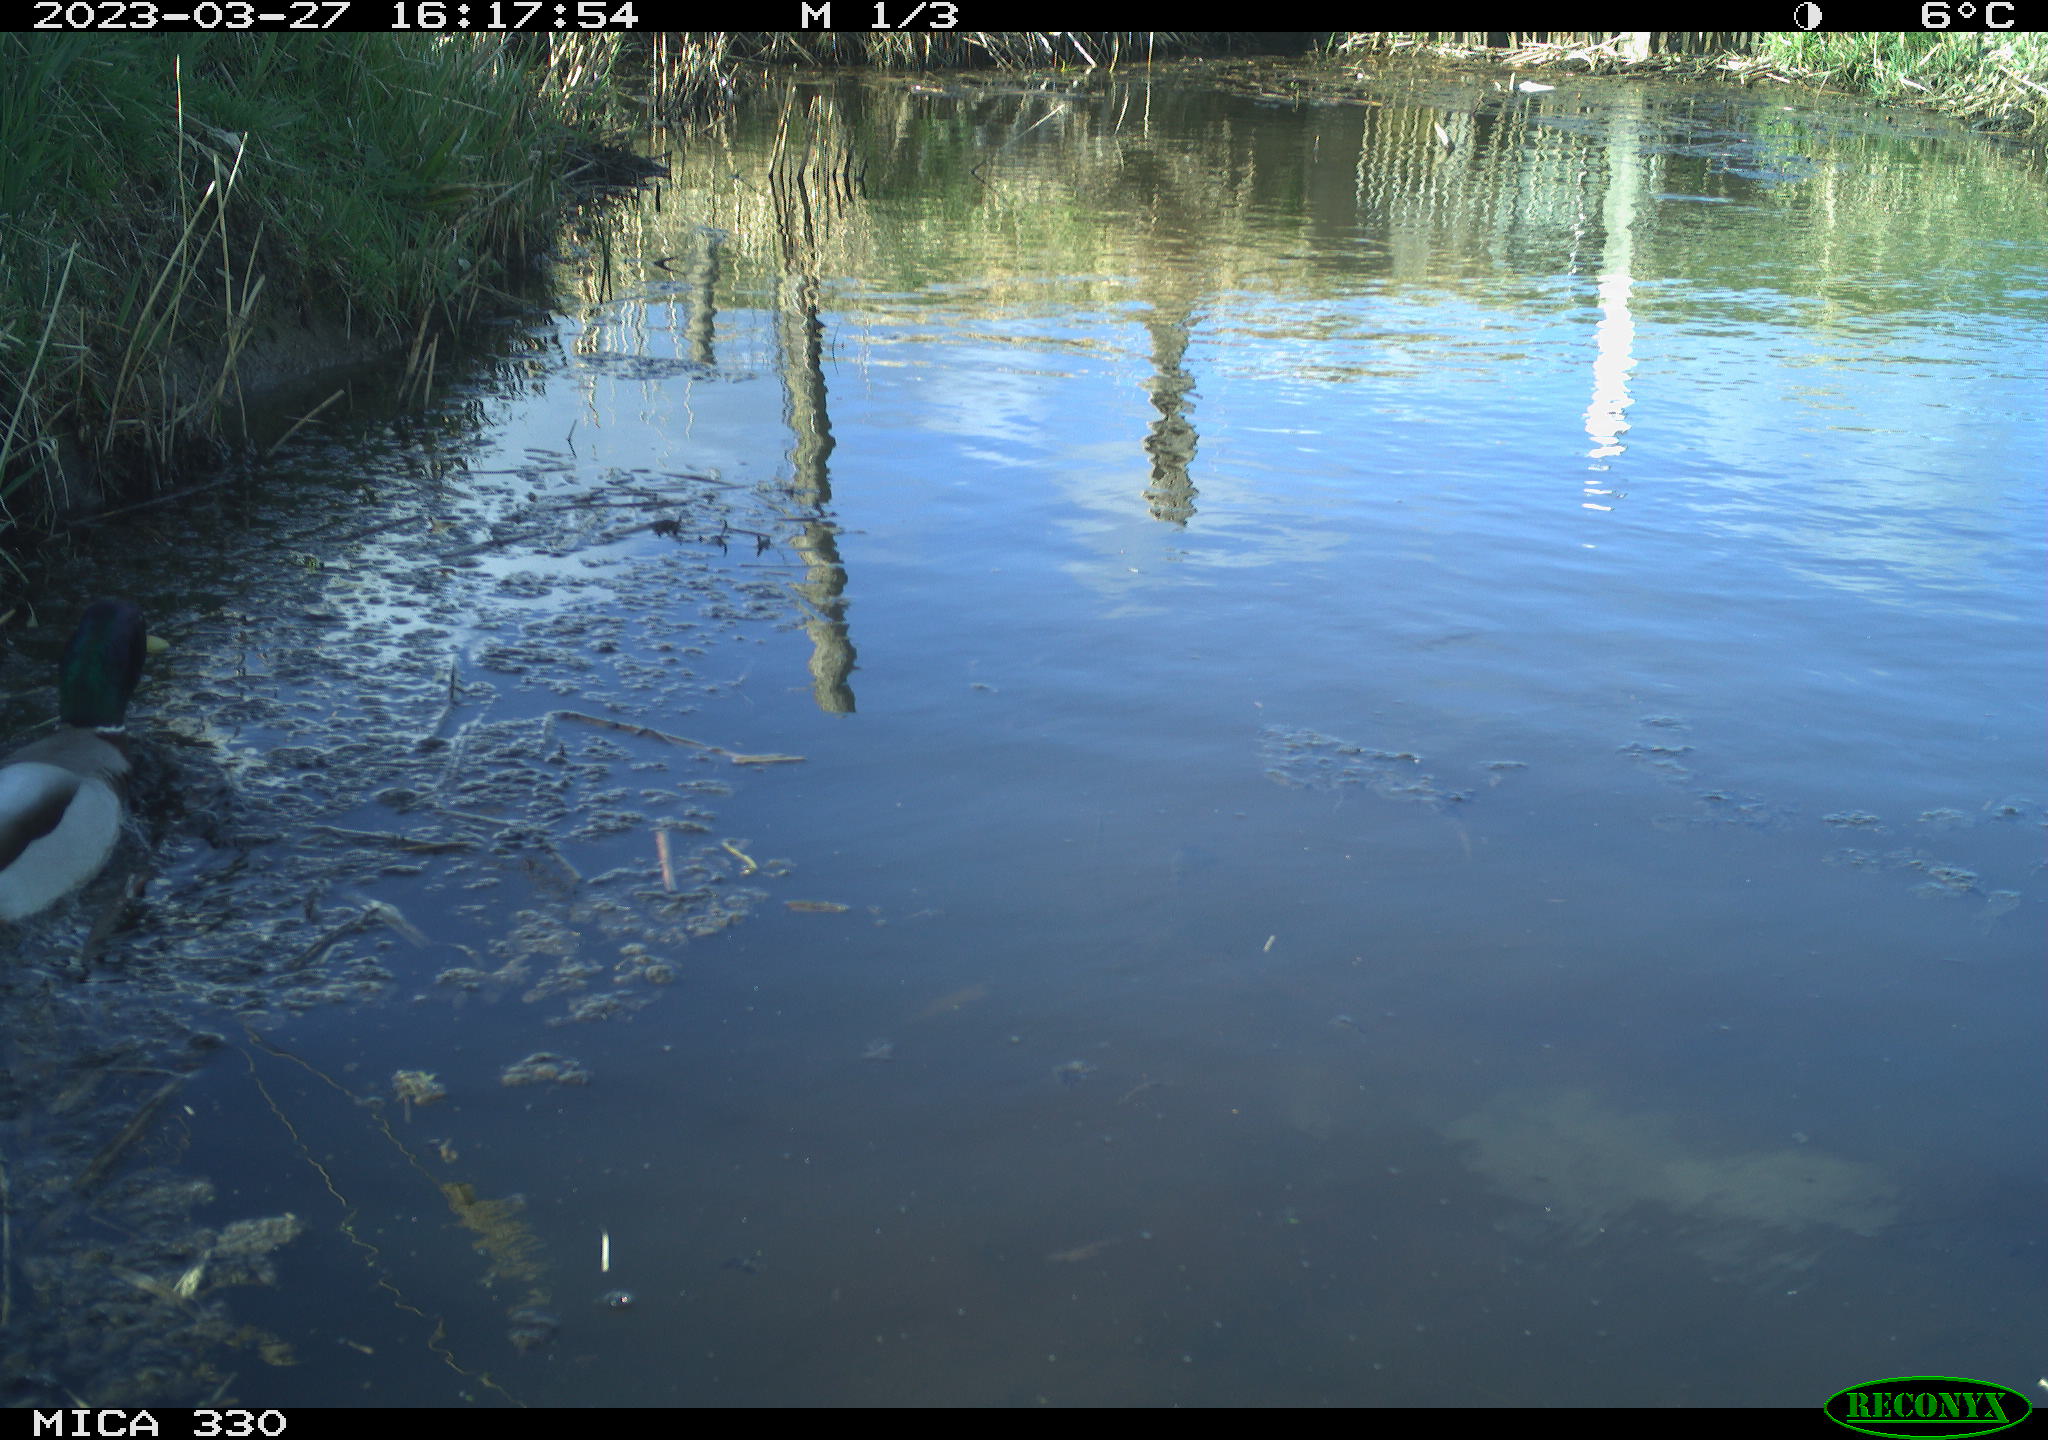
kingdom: Animalia
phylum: Chordata
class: Aves
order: Anseriformes
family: Anatidae
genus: Anas
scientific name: Anas
